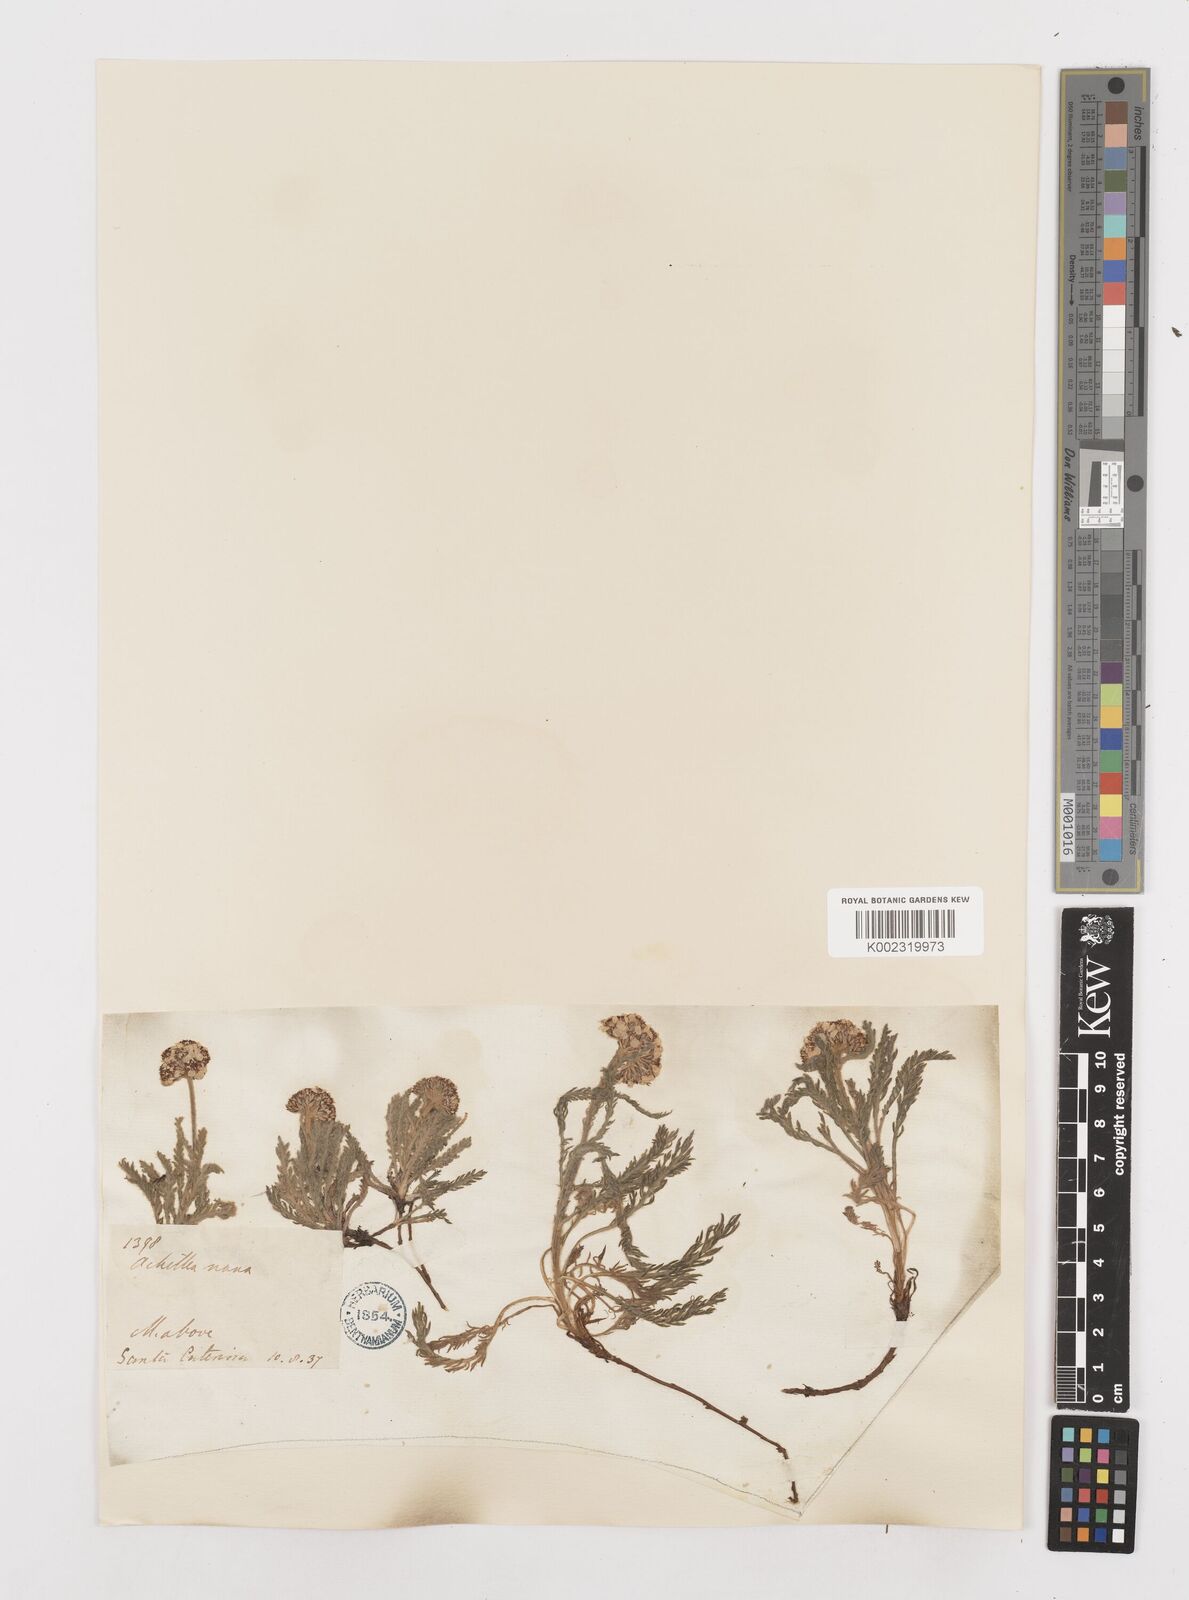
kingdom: Plantae
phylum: Tracheophyta
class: Magnoliopsida
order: Asterales
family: Asteraceae
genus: Achillea
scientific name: Achillea erba-rotta
